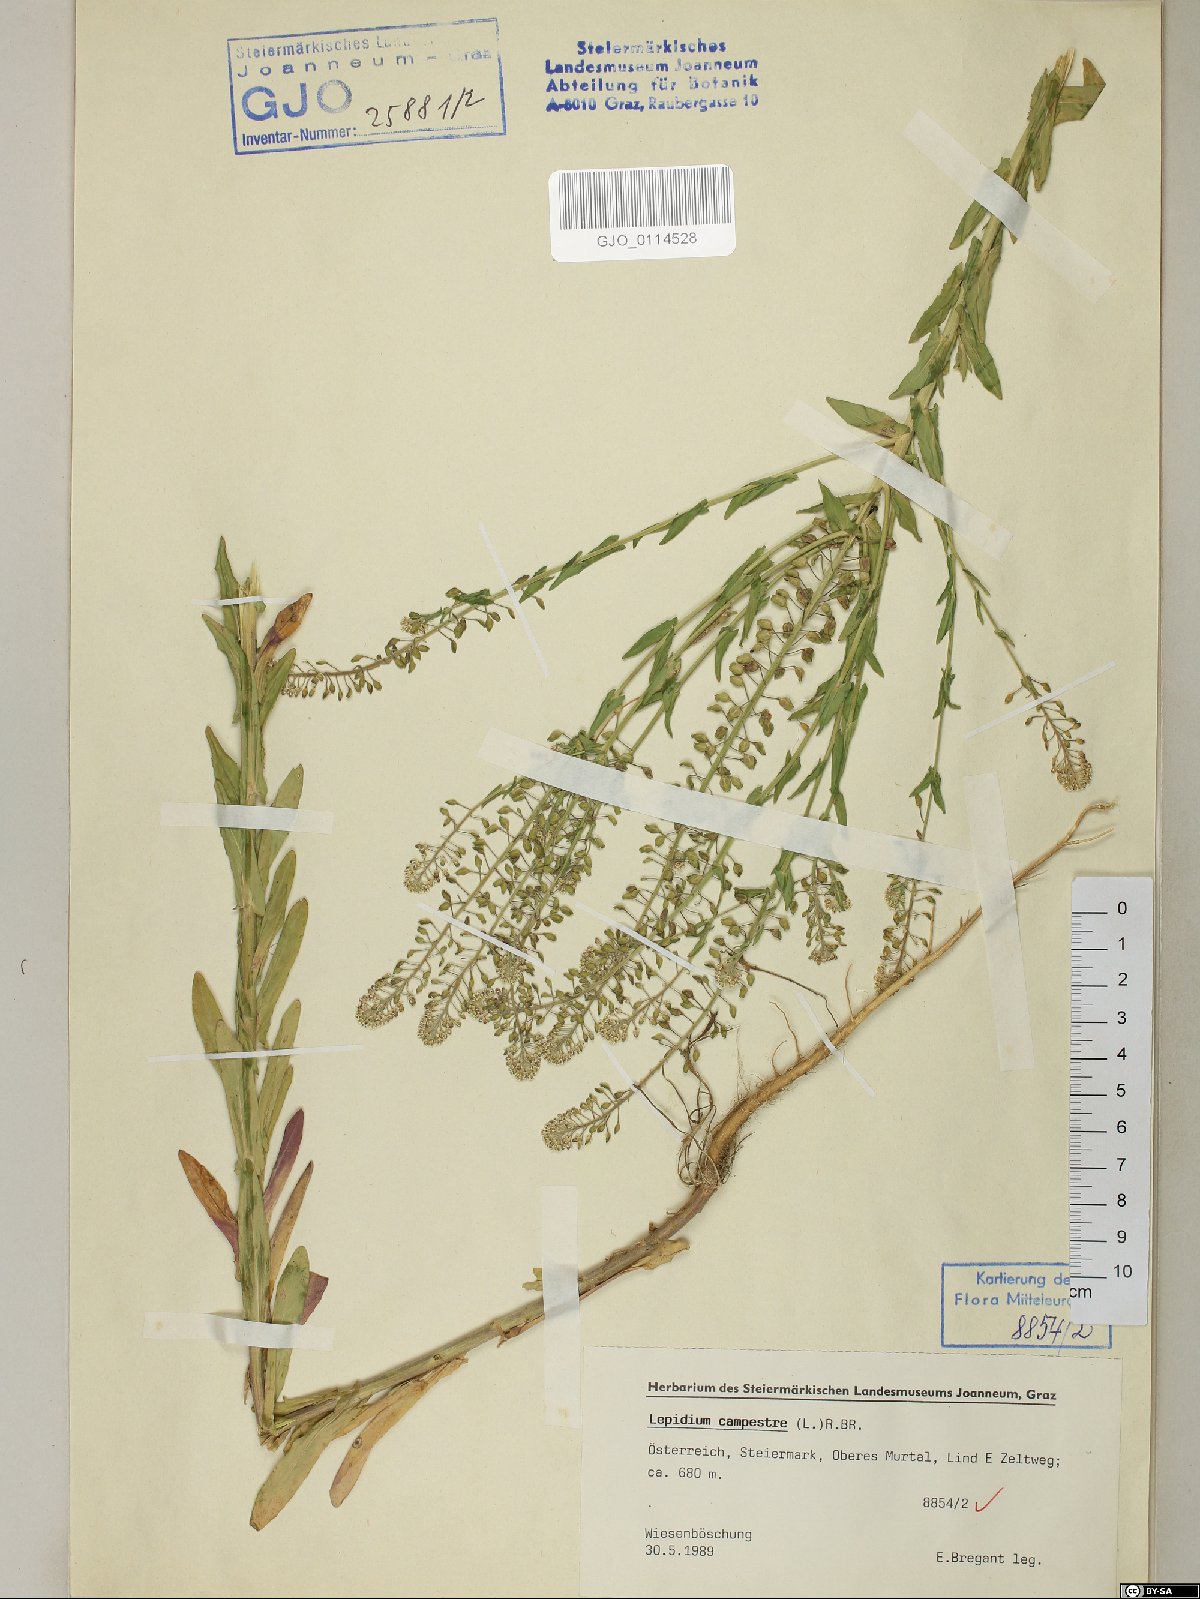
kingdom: Plantae
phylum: Tracheophyta
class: Magnoliopsida
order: Brassicales
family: Brassicaceae
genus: Lepidium
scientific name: Lepidium campestre
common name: Field pepperwort
